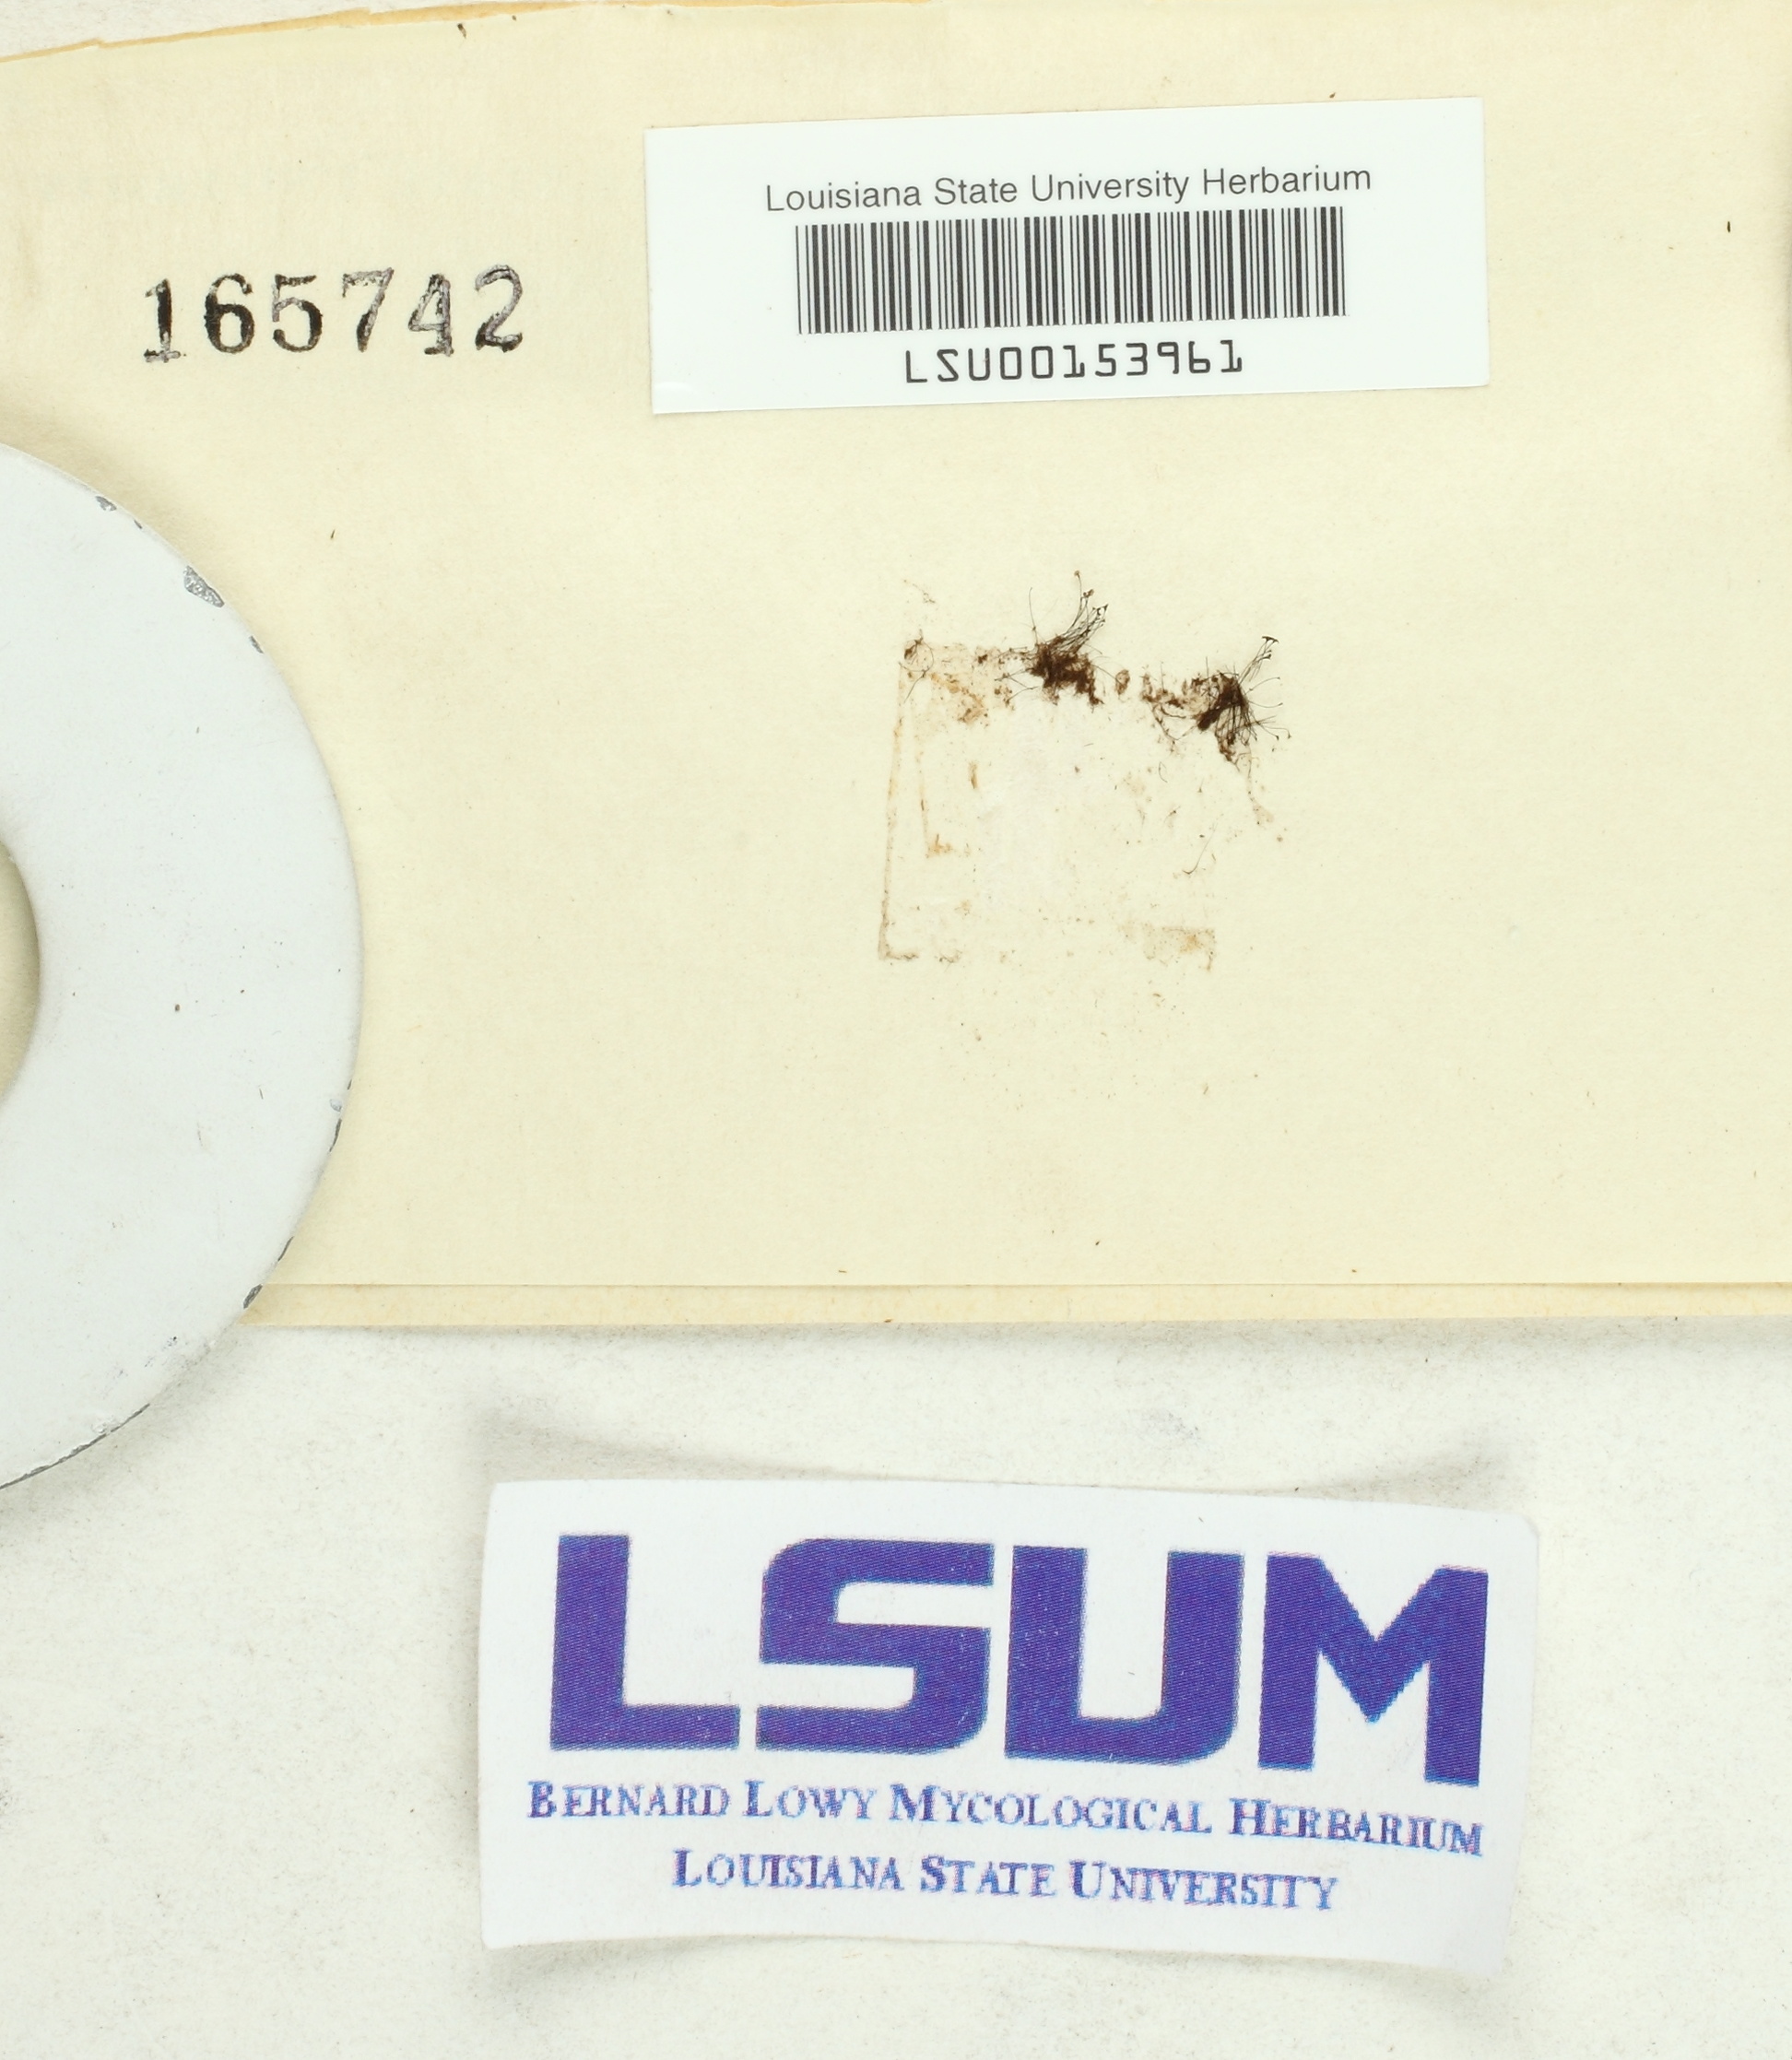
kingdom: Protozoa
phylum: Mycetozoa
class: Myxomycetes
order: Stemonitidales
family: Stemonitidaceae
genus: Stemonitis
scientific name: Stemonitis axifera
